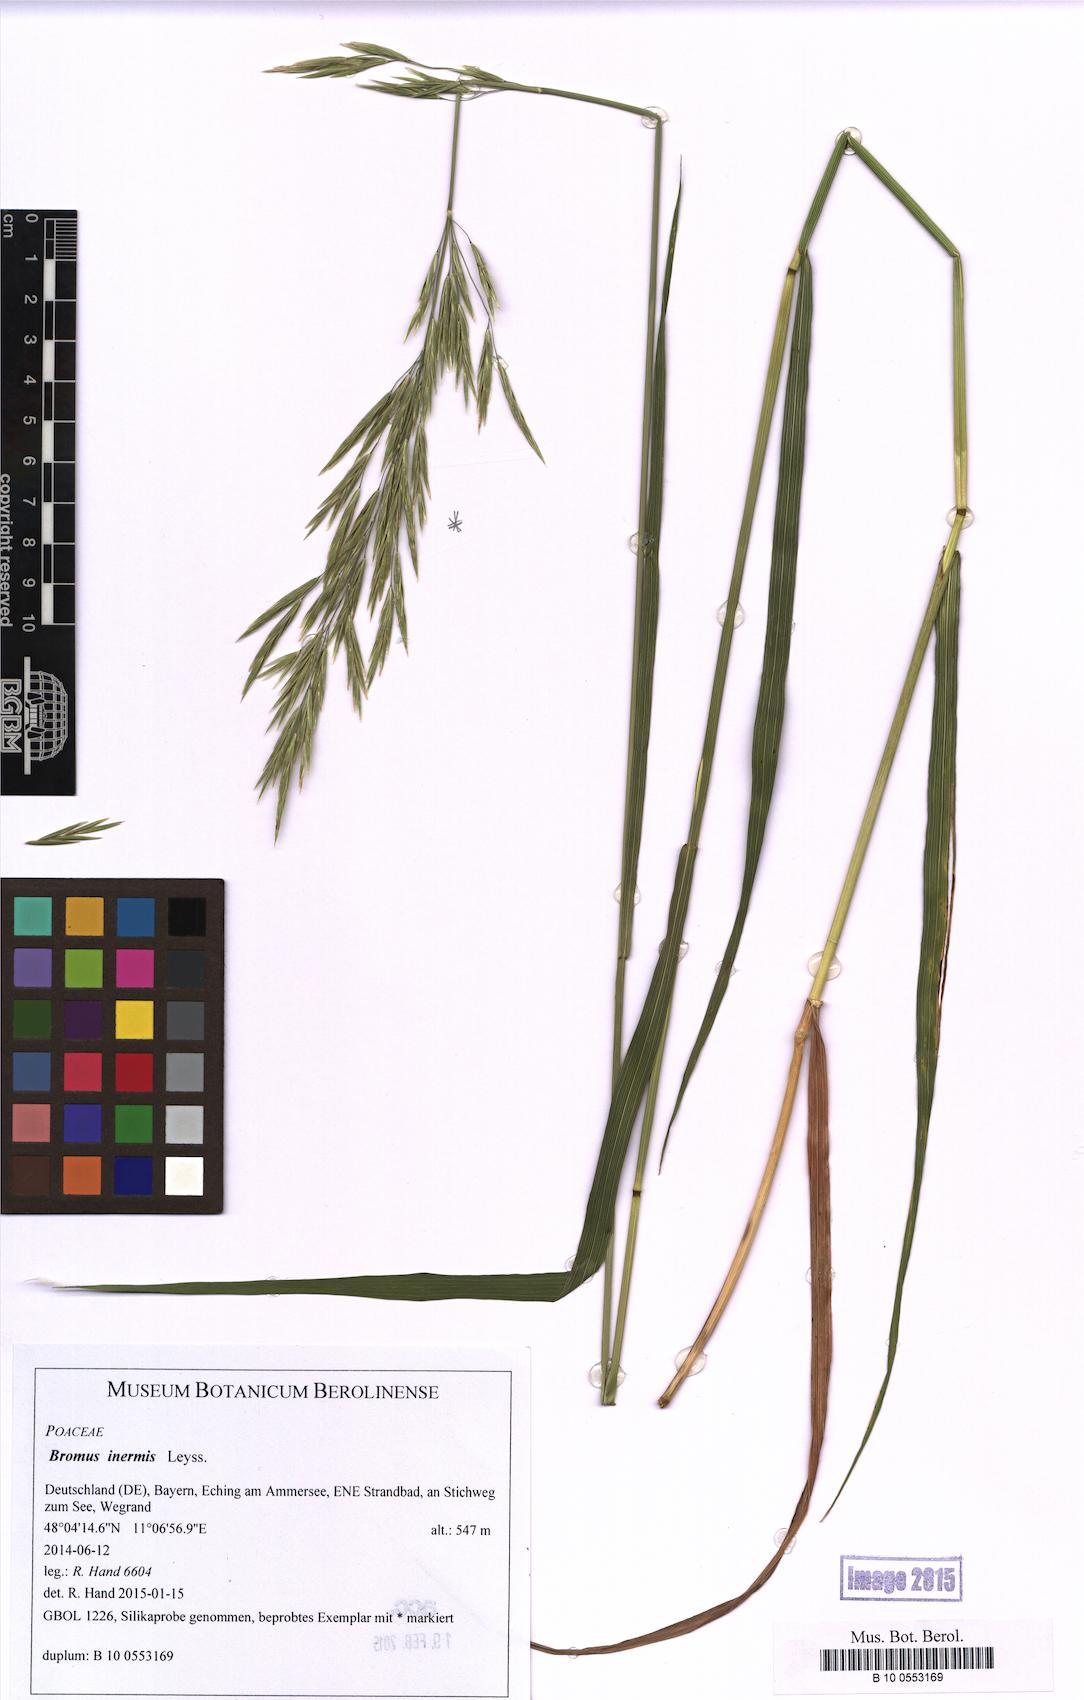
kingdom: Plantae
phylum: Tracheophyta
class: Liliopsida
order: Poales
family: Poaceae
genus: Bromus
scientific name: Bromus inermis
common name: Smooth brome
